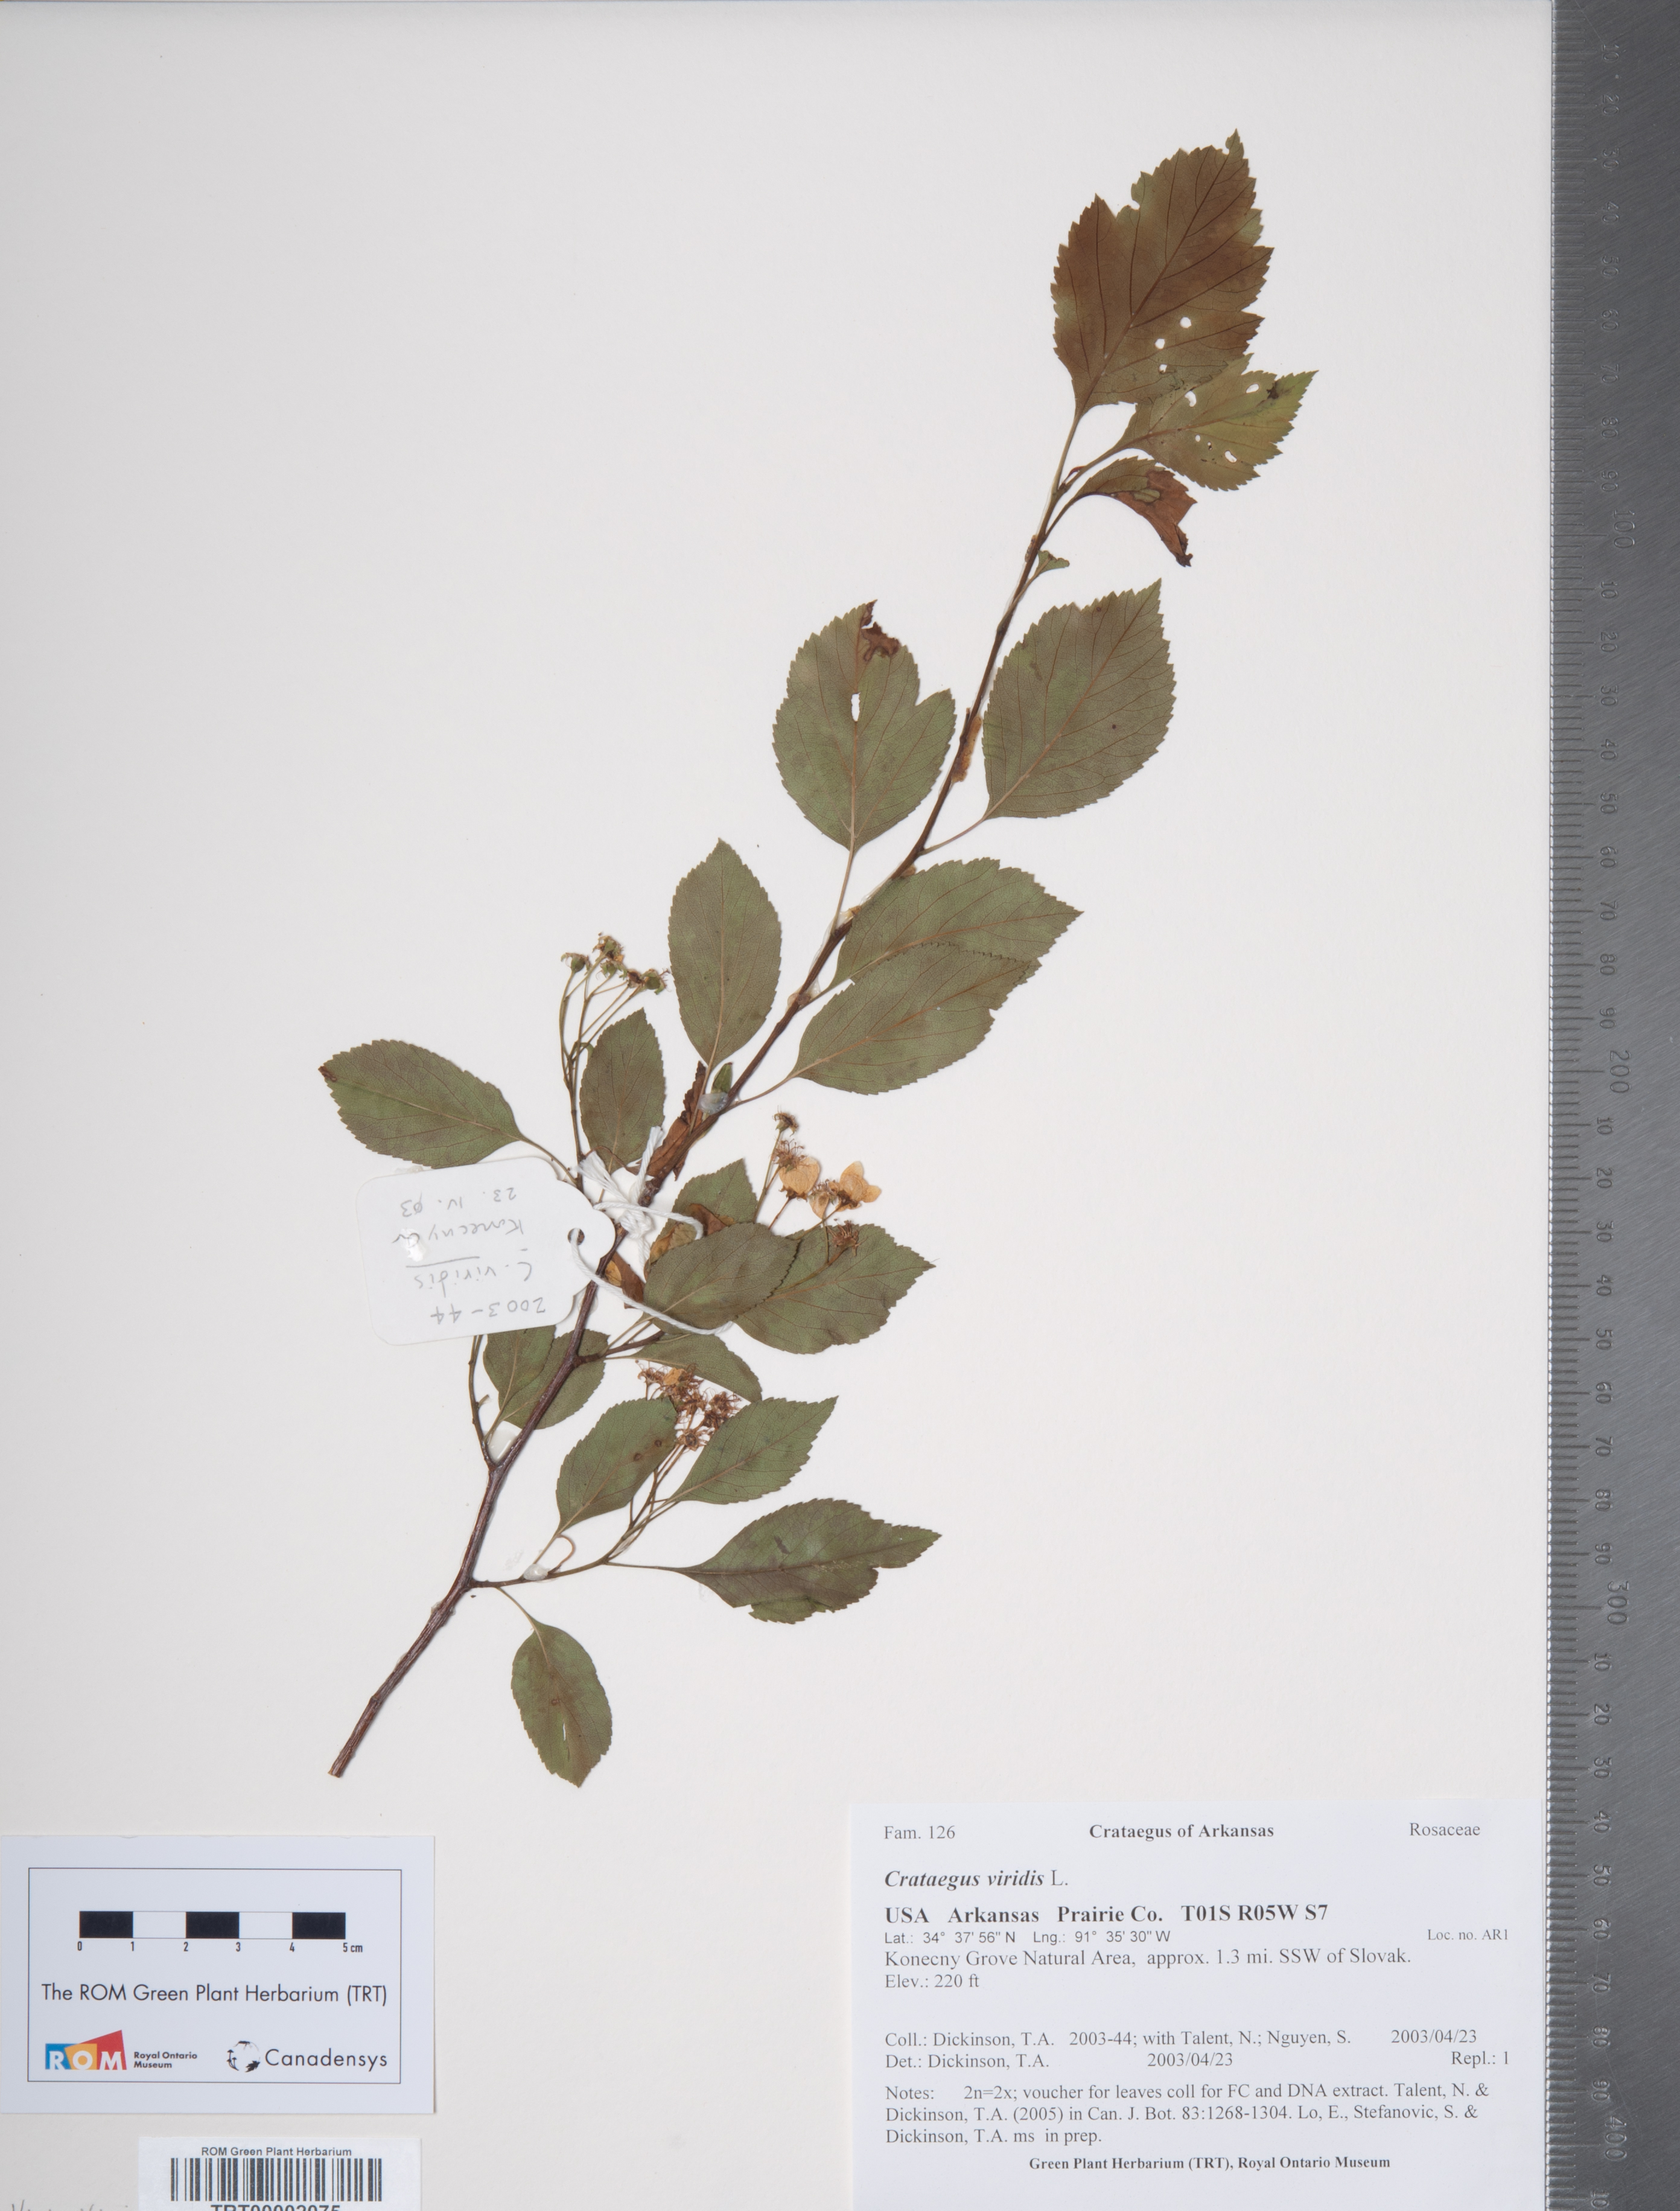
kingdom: Plantae
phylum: Tracheophyta
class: Magnoliopsida
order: Rosales
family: Rosaceae
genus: Crataegus
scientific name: Crataegus viridis
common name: Southernthorn
